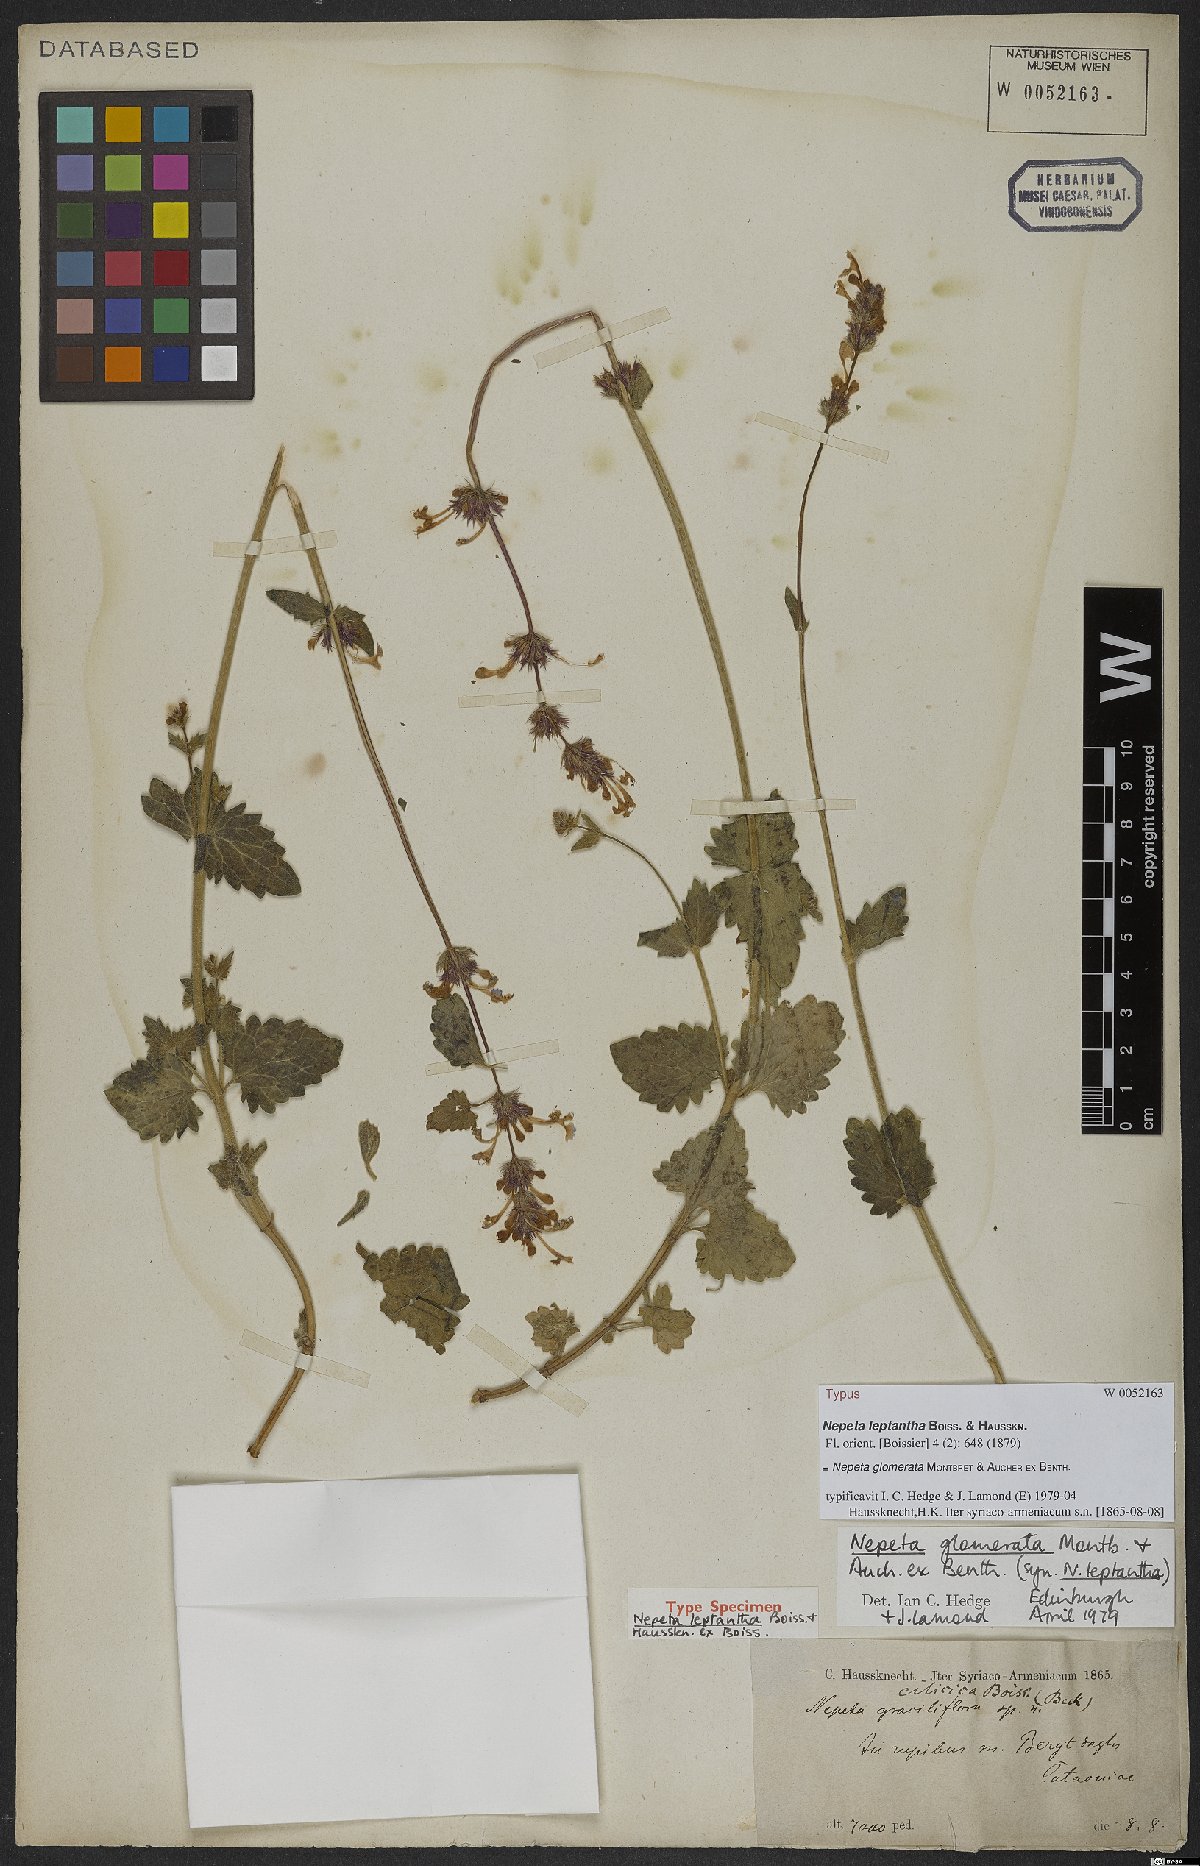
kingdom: Plantae
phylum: Tracheophyta
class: Magnoliopsida
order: Lamiales
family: Lamiaceae
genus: Nepeta
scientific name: Nepeta glomerata
